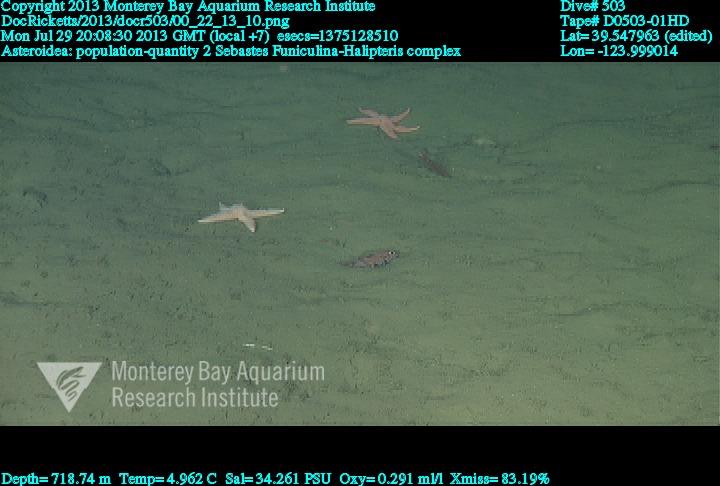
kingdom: Animalia
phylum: Cnidaria
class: Anthozoa
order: Scleralcyonacea
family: Funiculinidae
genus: Funiculina
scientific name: Funiculina
